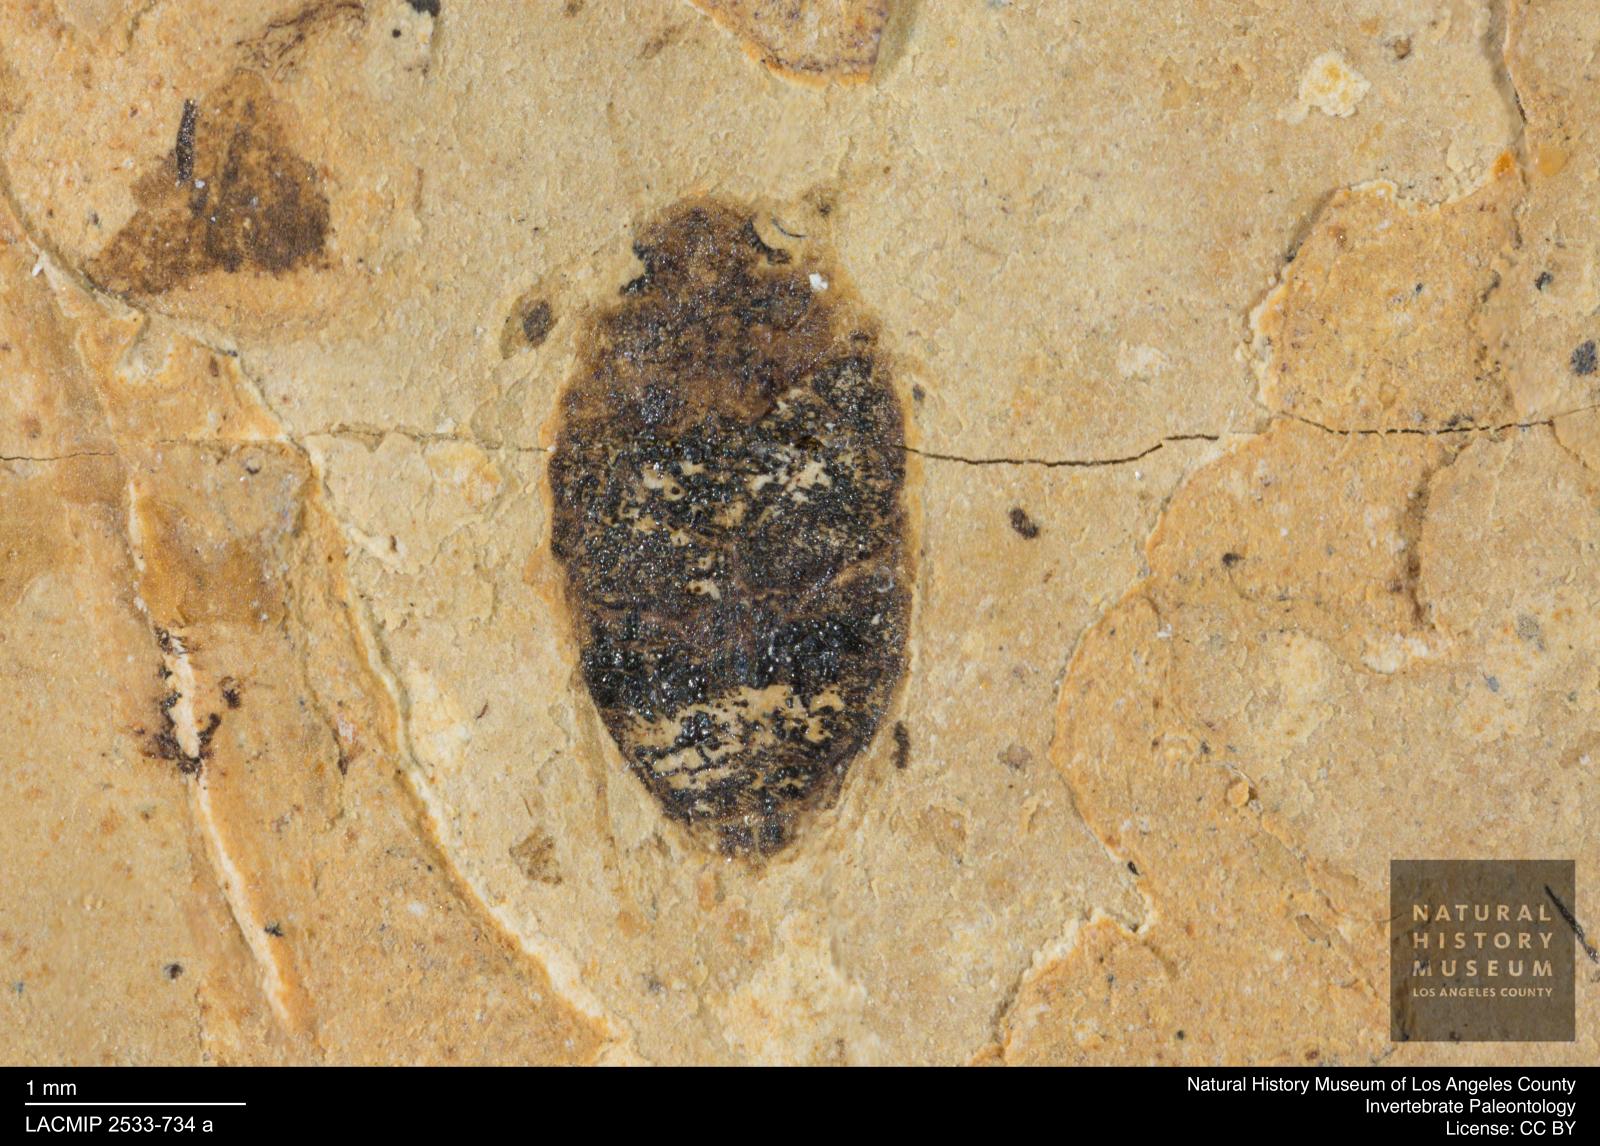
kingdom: Animalia
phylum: Arthropoda
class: Insecta
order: Coleoptera
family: Dytiscidae
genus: Oreodytes
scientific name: Oreodytes cryptolineatus
